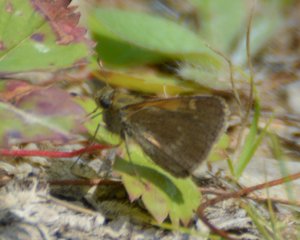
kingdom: Animalia
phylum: Arthropoda
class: Insecta
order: Lepidoptera
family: Hesperiidae
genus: Polites
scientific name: Polites themistocles
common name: Tawny-edged Skipper
